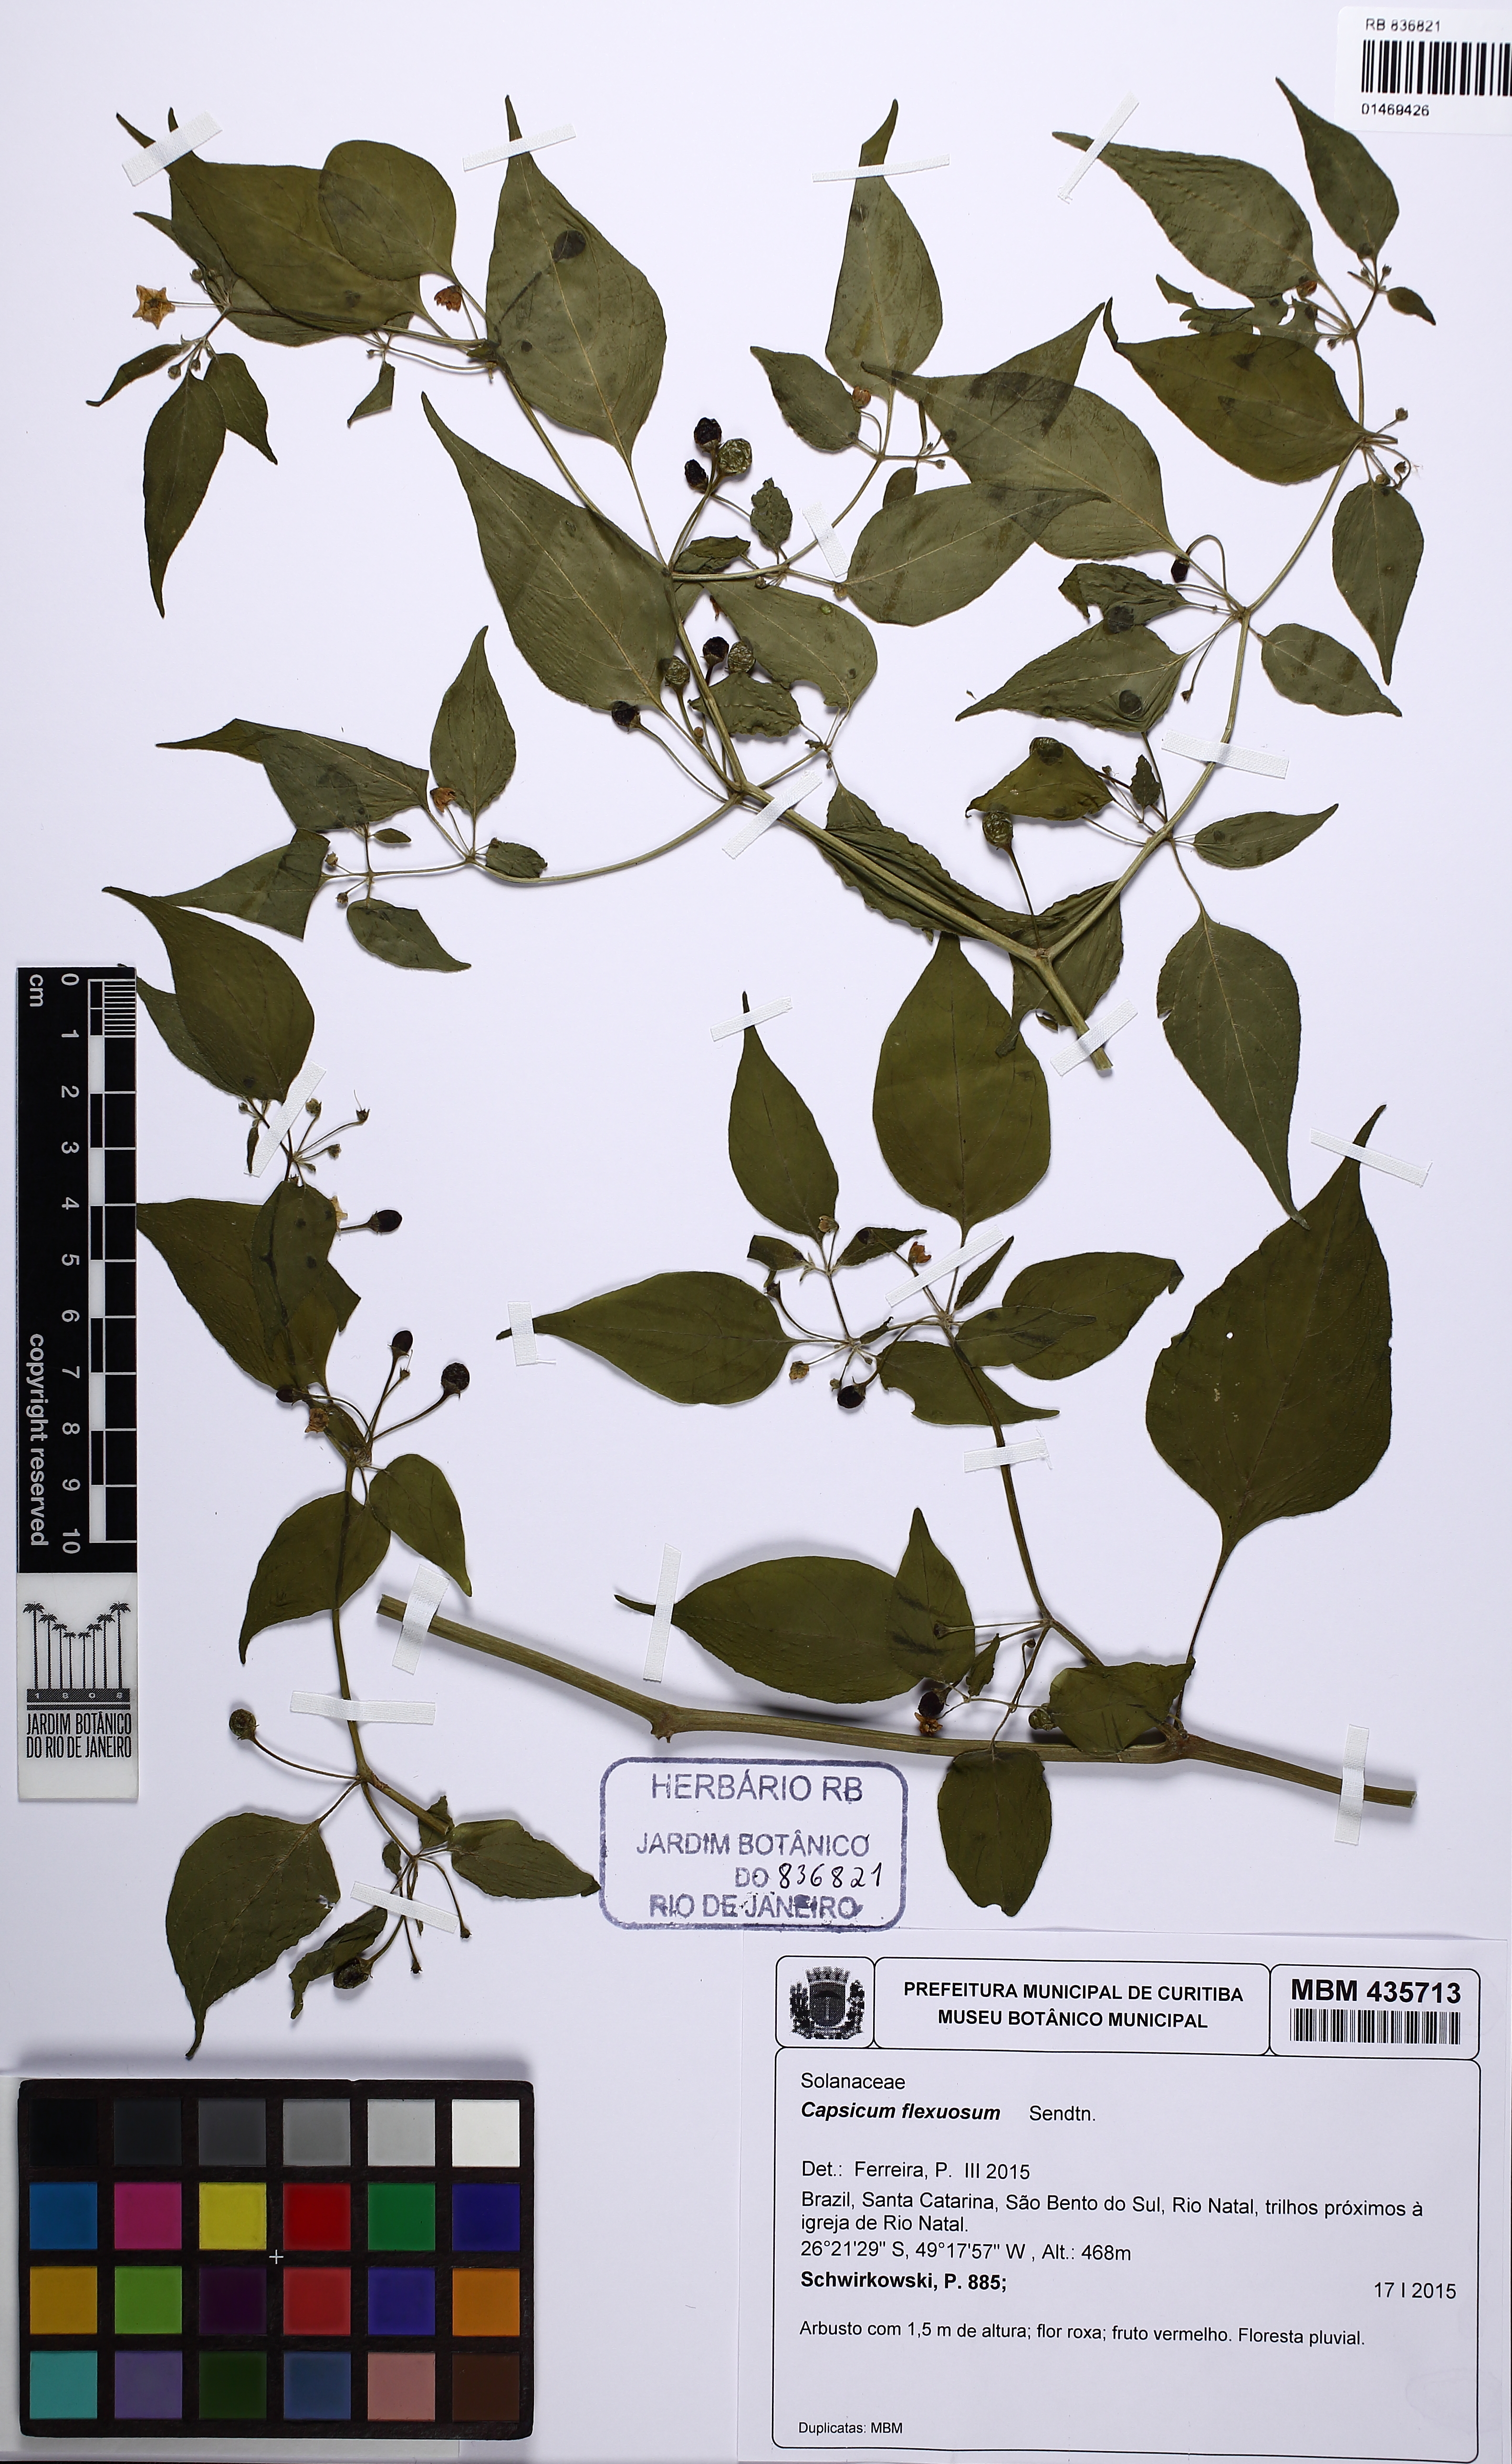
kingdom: Plantae
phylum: Tracheophyta
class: Magnoliopsida
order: Solanales
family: Solanaceae
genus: Capsicum
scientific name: Capsicum flexuosum
